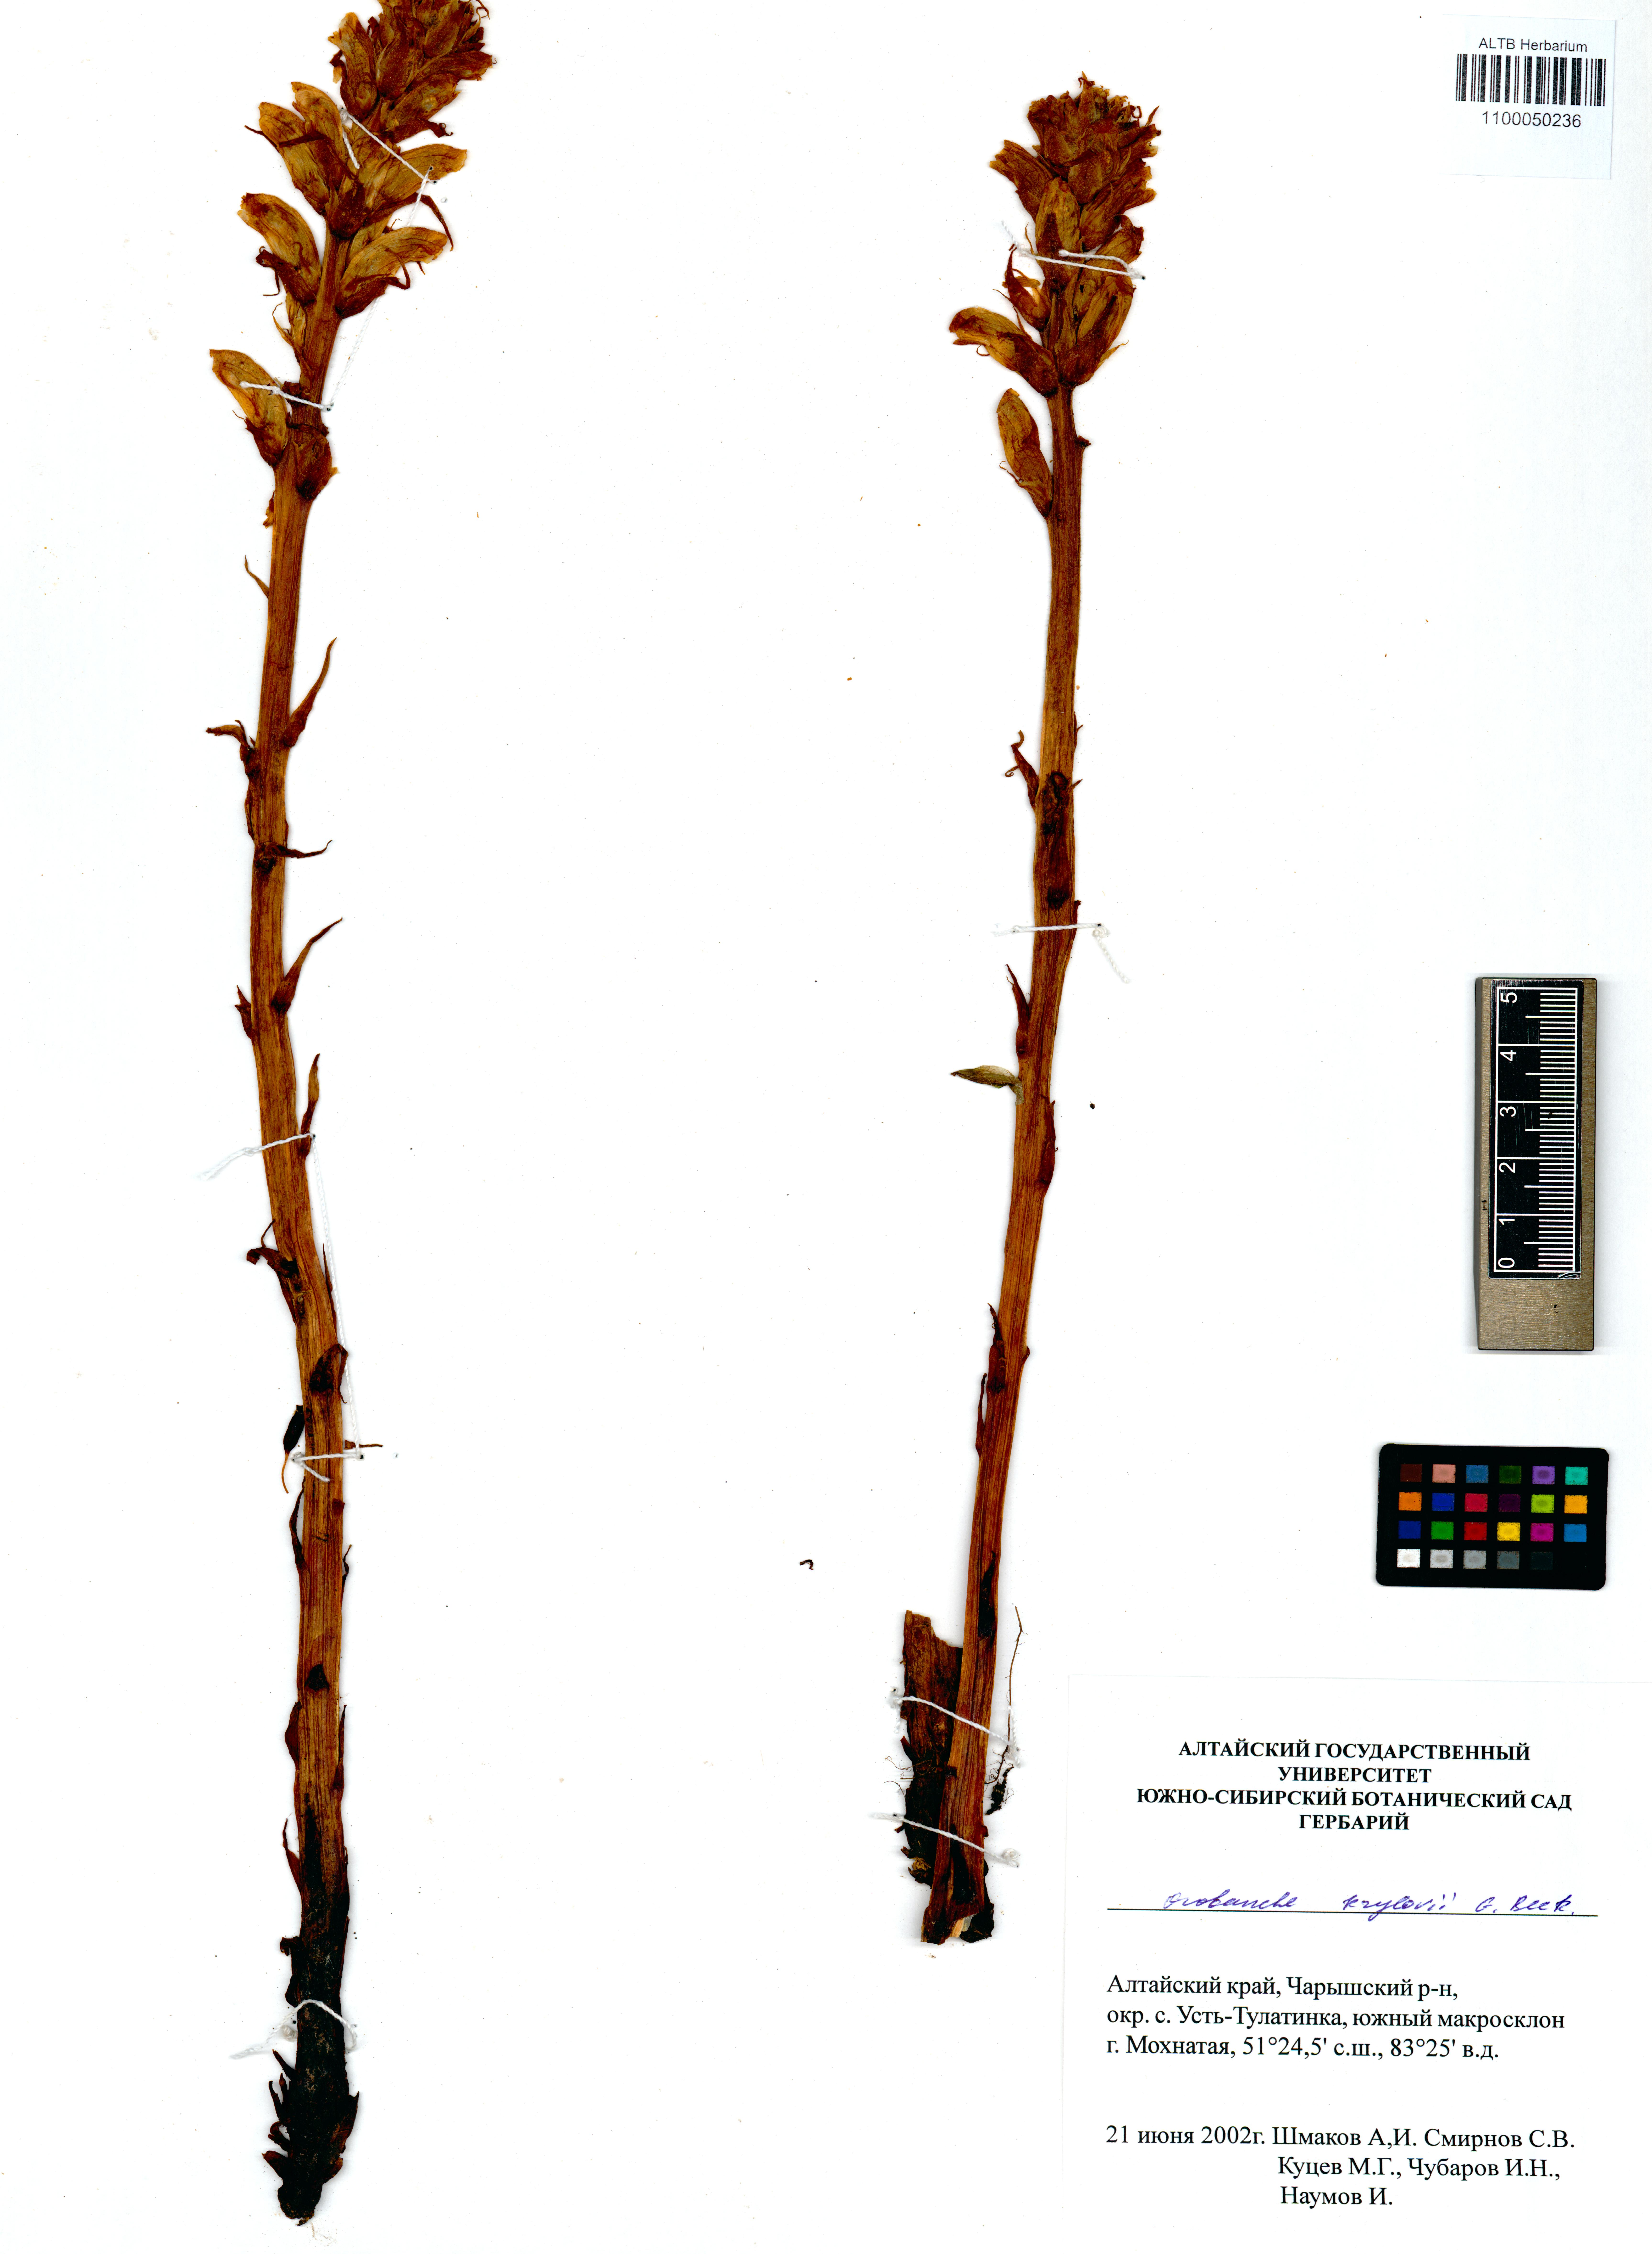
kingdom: Plantae
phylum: Tracheophyta
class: Magnoliopsida
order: Lamiales
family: Orobanchaceae
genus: Orobanche
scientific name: Orobanche krylowii
